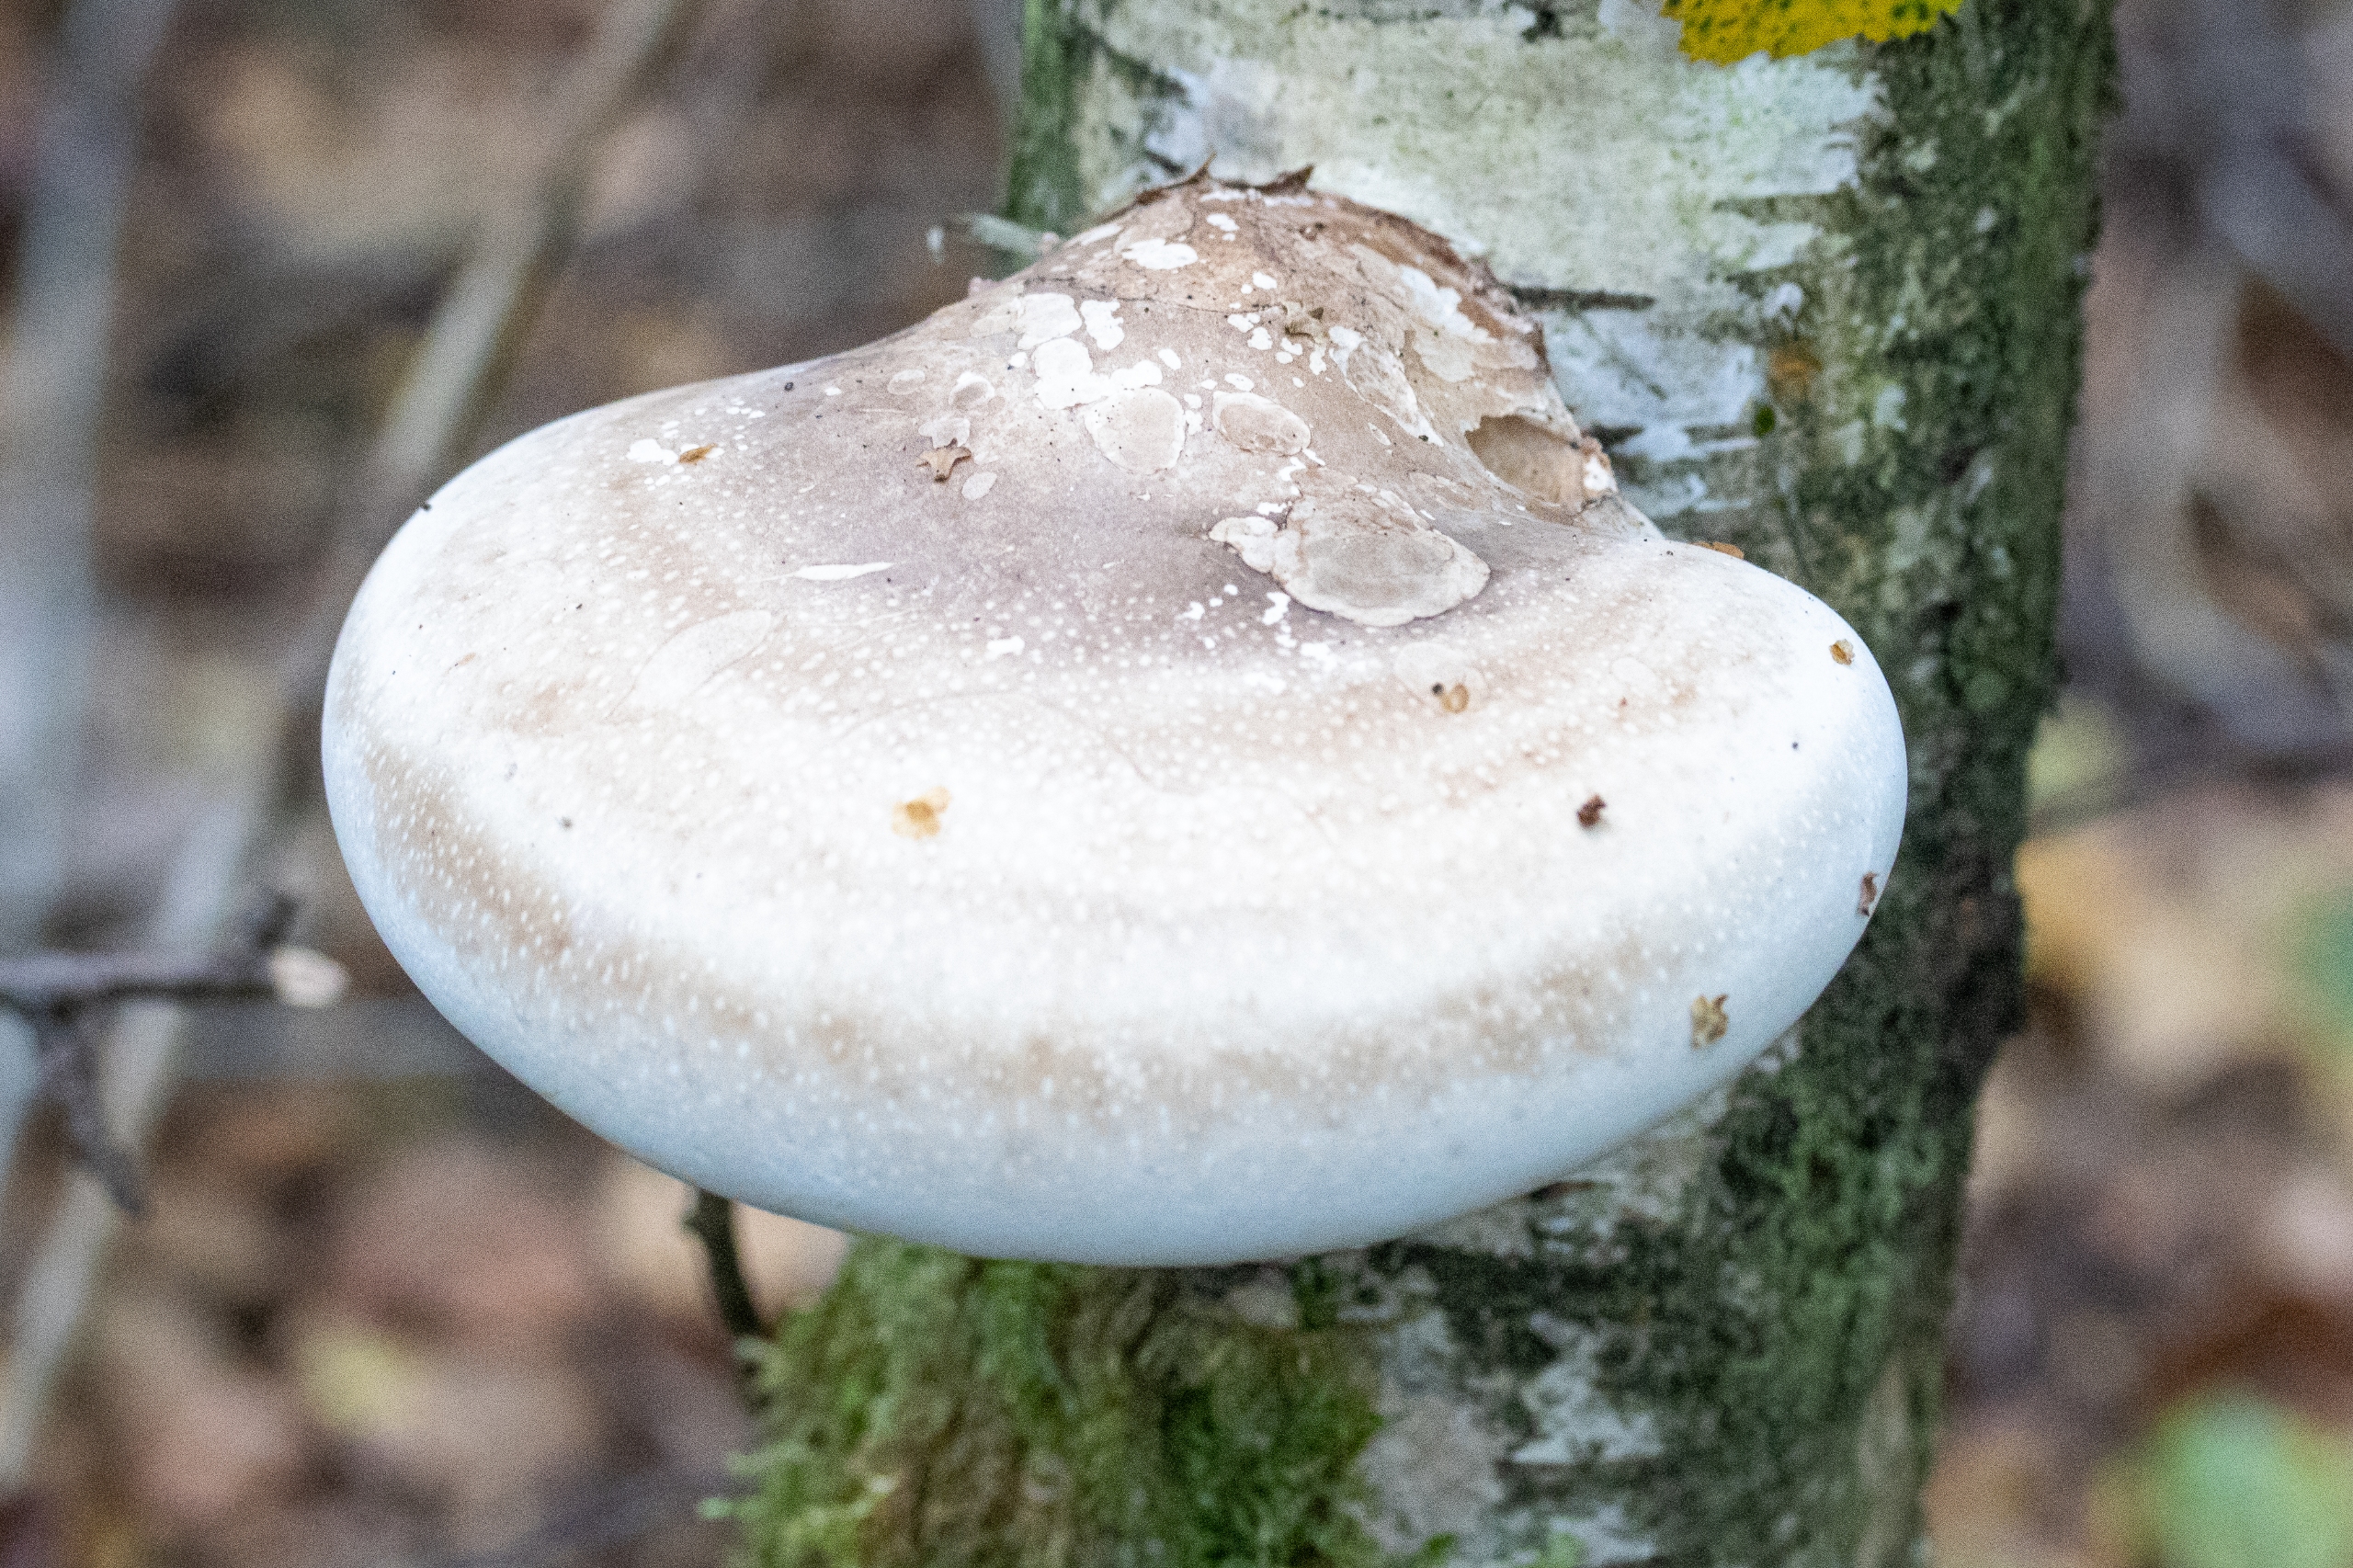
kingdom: Fungi
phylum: Basidiomycota
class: Agaricomycetes
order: Polyporales
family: Fomitopsidaceae
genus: Fomitopsis
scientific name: Fomitopsis betulina
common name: Birkeporesvamp
